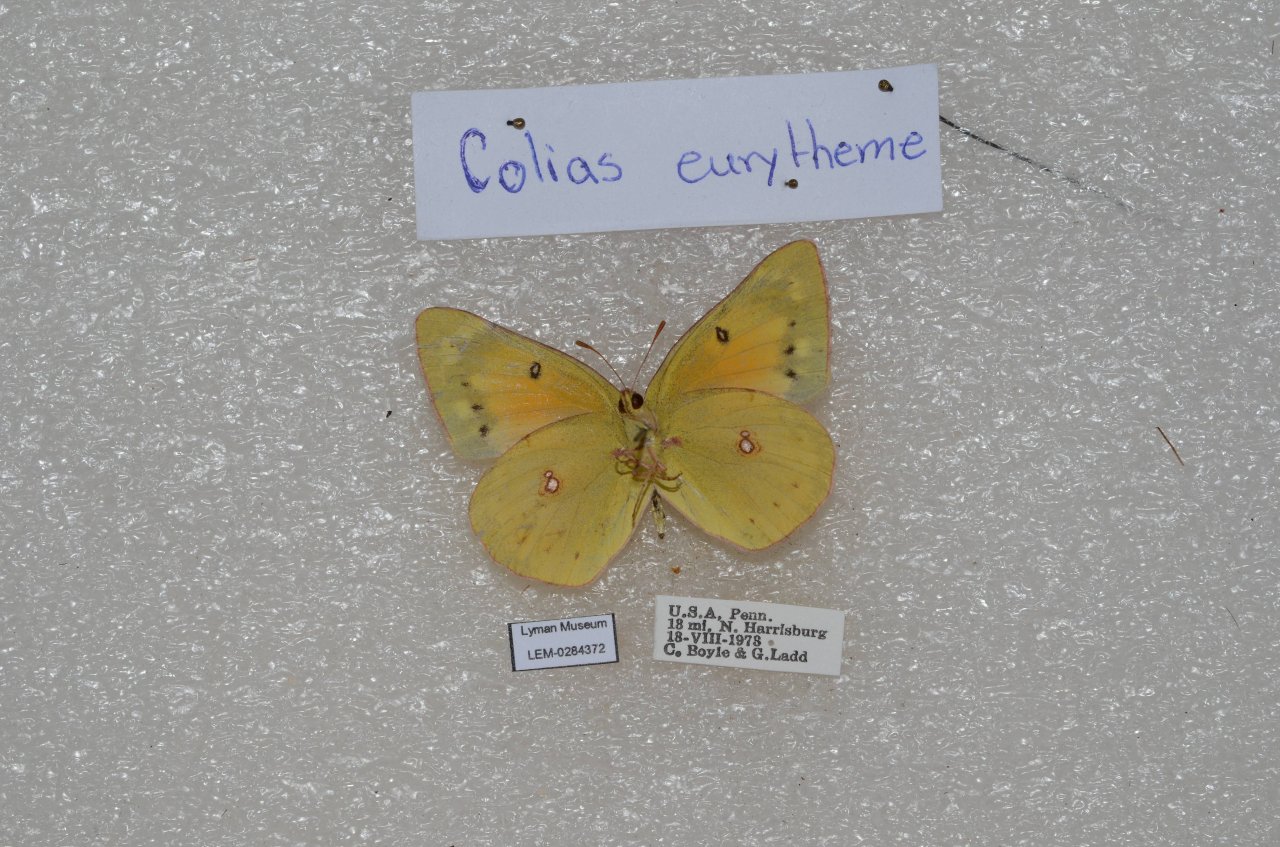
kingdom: Animalia
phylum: Arthropoda
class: Insecta
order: Lepidoptera
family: Pieridae
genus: Colias
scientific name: Colias eurytheme
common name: Orange Sulphur
